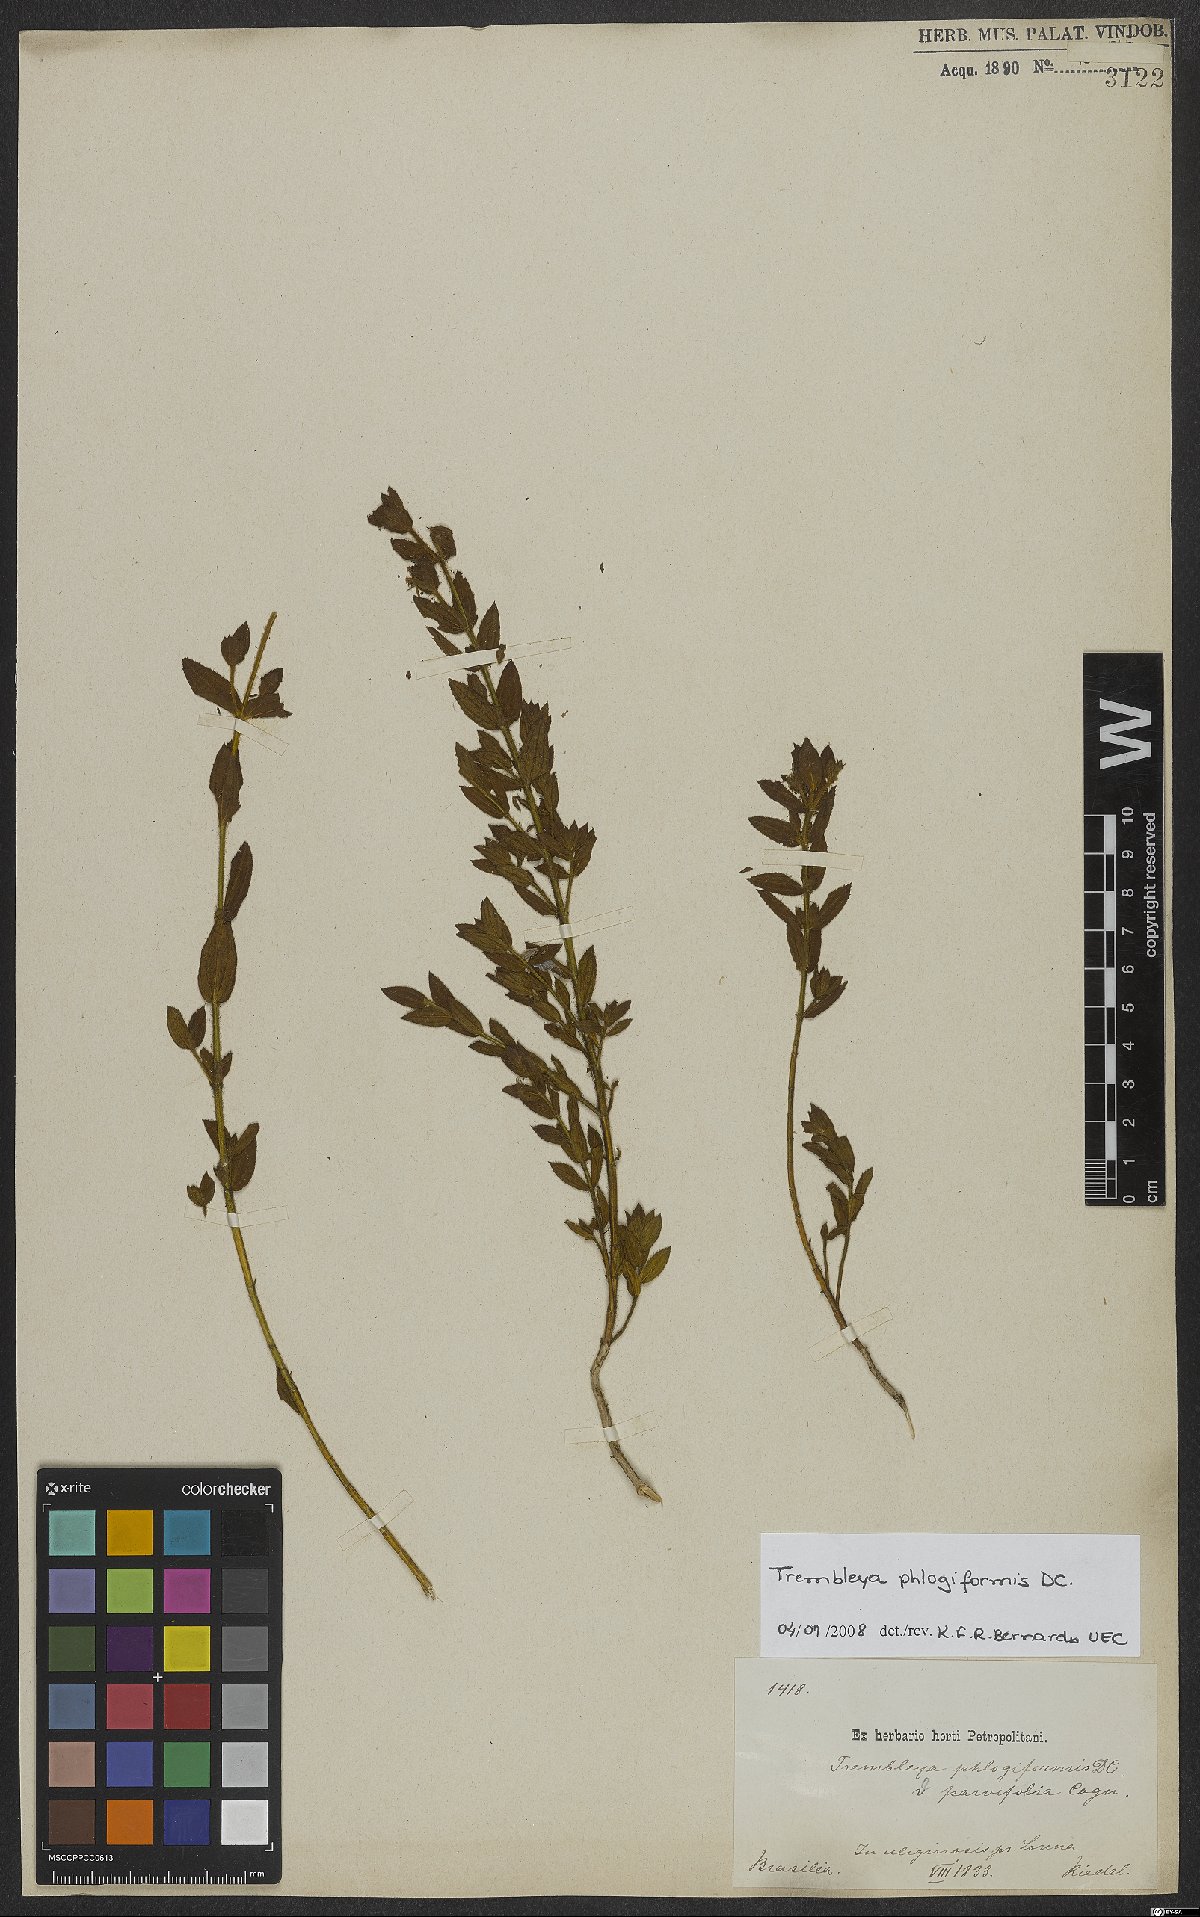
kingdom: Plantae
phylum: Tracheophyta
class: Magnoliopsida
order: Myrtales
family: Melastomataceae
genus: Microlicia
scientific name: Microlicia phlogiformis
